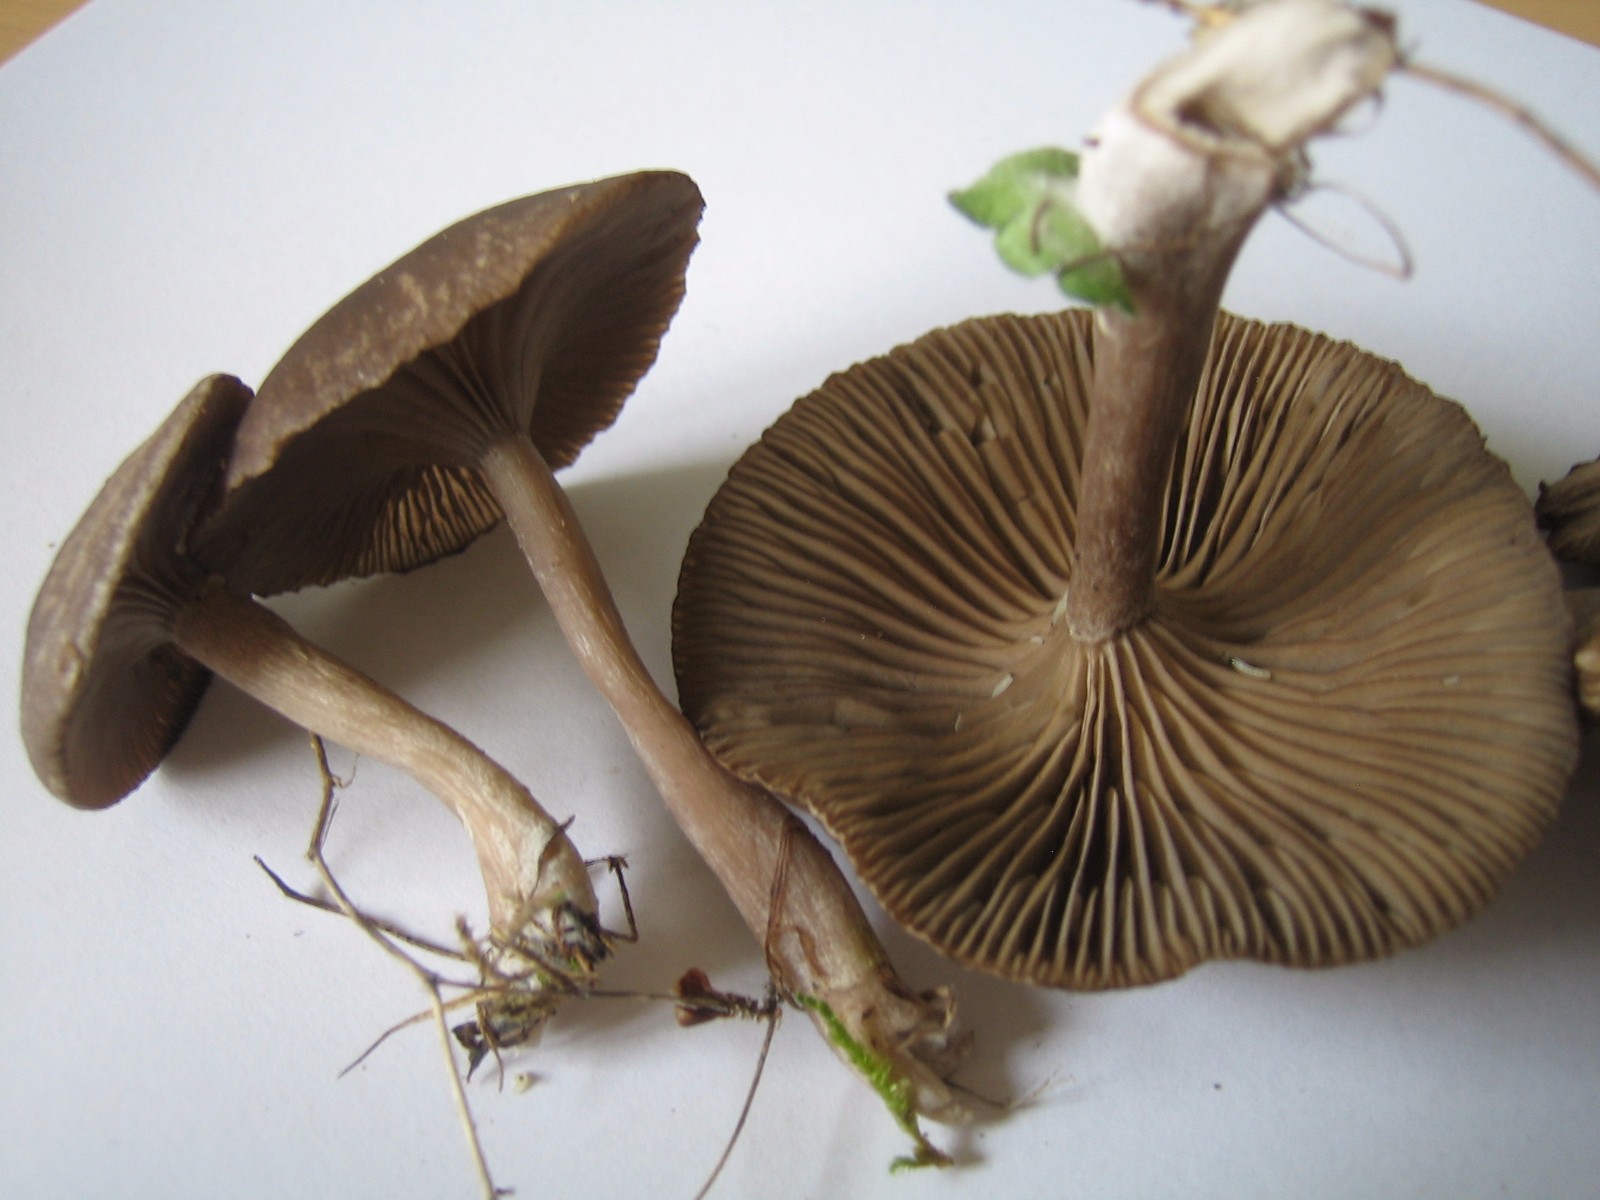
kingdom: Fungi
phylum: Basidiomycota
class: Agaricomycetes
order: Agaricales
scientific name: Agaricales
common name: champignonordenen
